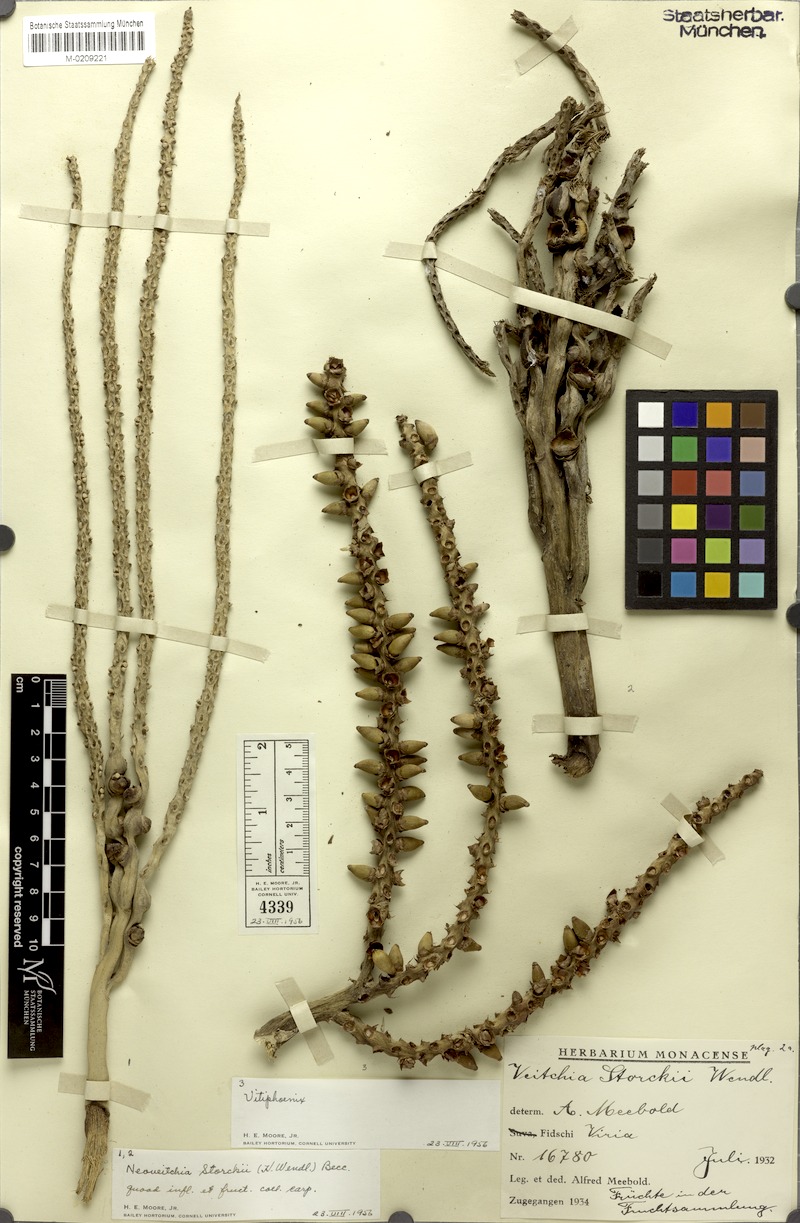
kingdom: Plantae
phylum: Tracheophyta
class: Liliopsida
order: Arecales
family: Arecaceae
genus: Neoveitchia
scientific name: Neoveitchia storckii
